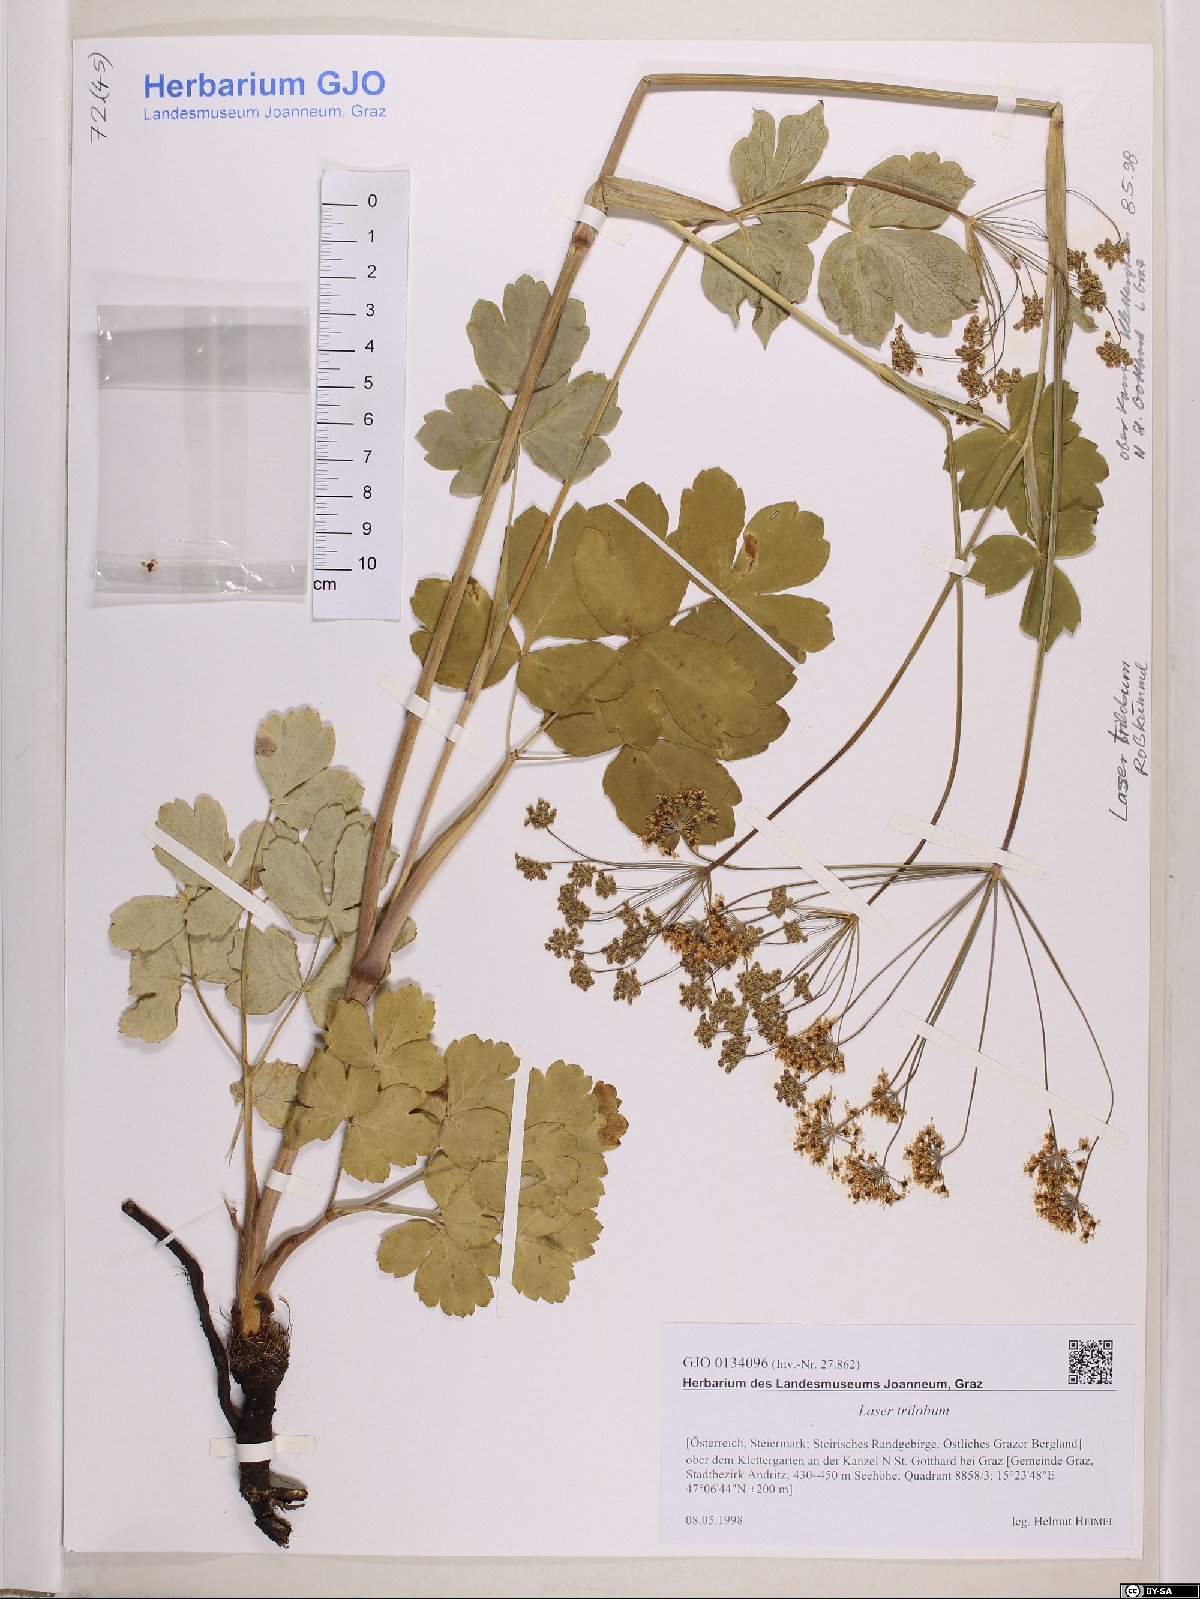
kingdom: Plantae
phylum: Tracheophyta
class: Magnoliopsida
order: Apiales
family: Apiaceae
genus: Laser
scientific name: Laser trilobum
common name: Laser
